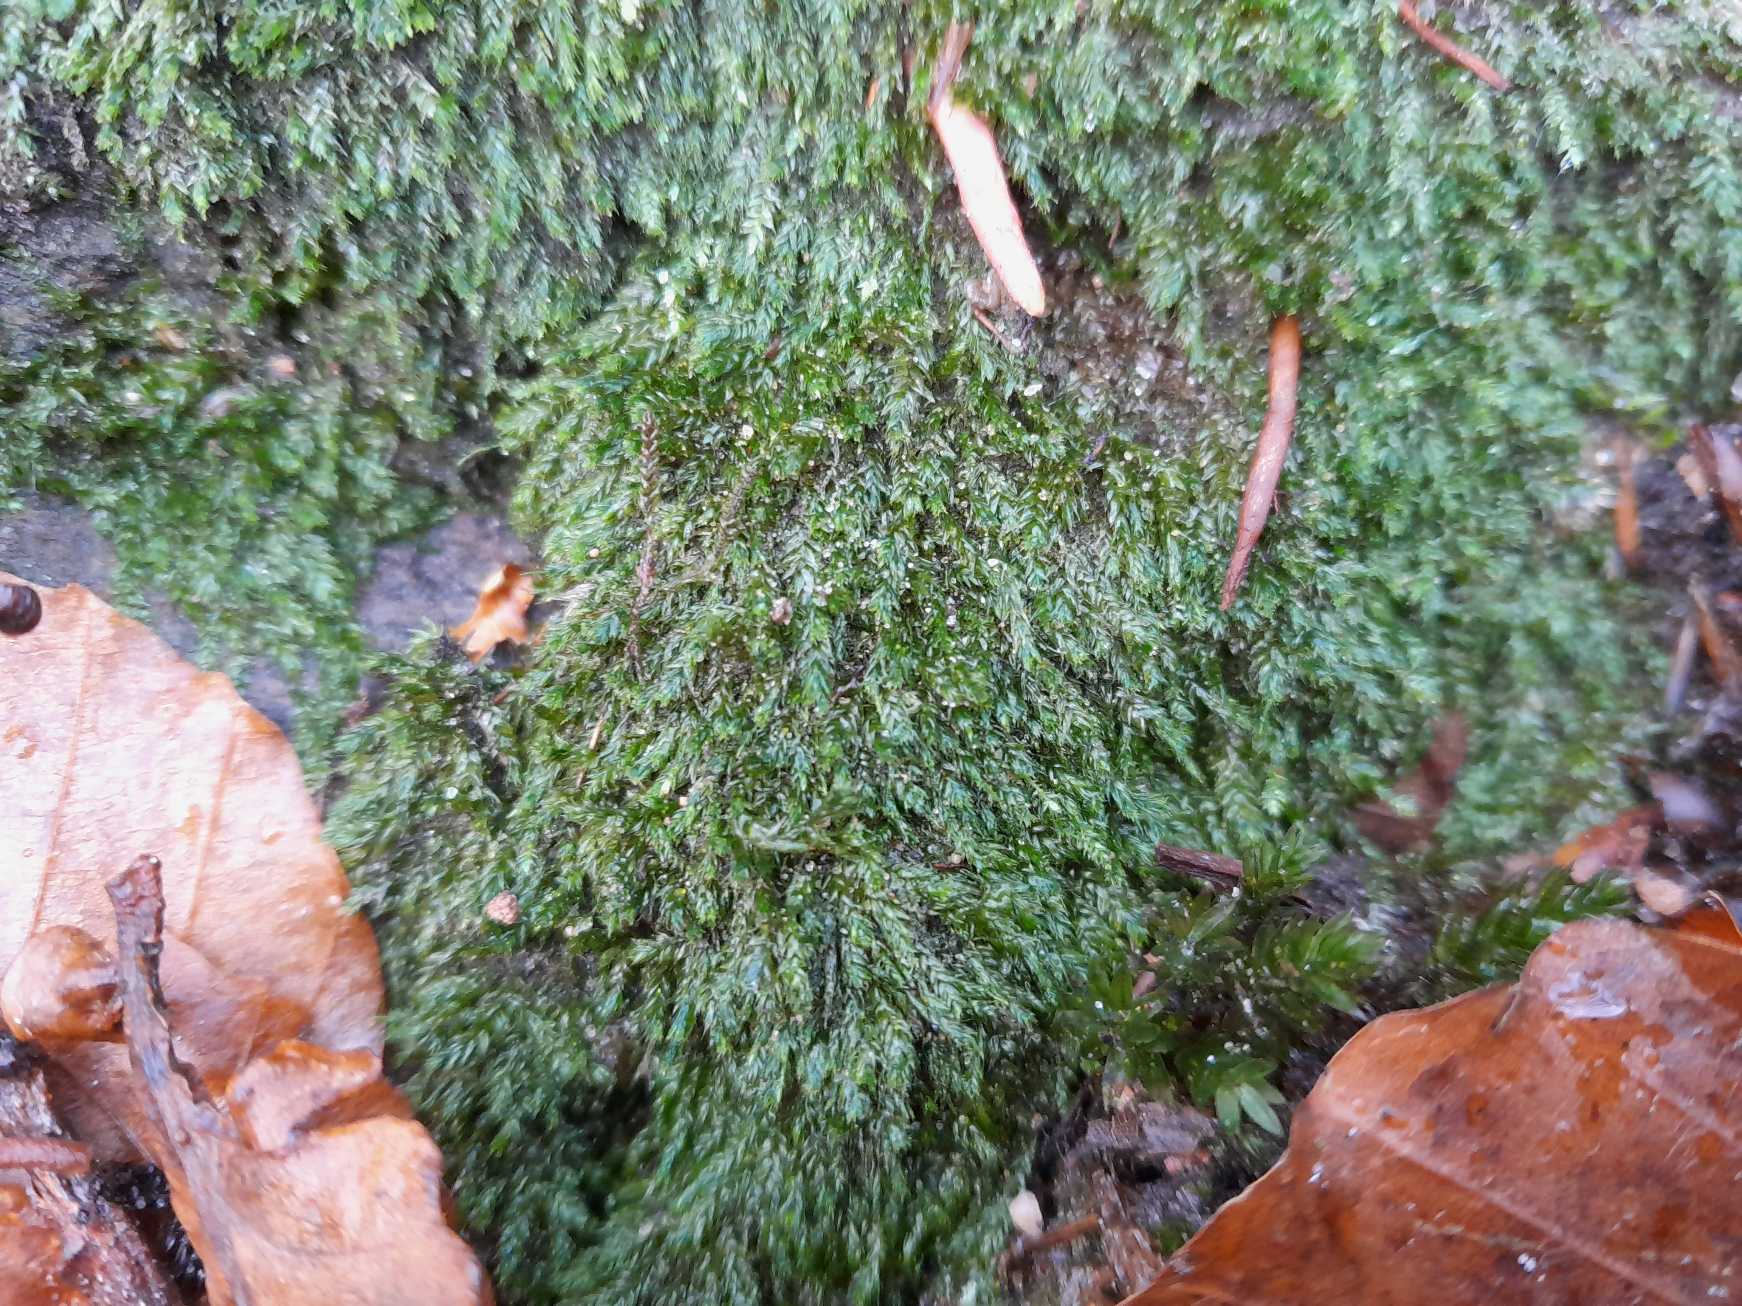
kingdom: Plantae
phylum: Bryophyta
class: Bryopsida
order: Hypnales
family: Plagiotheciaceae
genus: Pseudotaxiphyllum
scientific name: Pseudotaxiphyllum elegans
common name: Skinnende ynglegren
